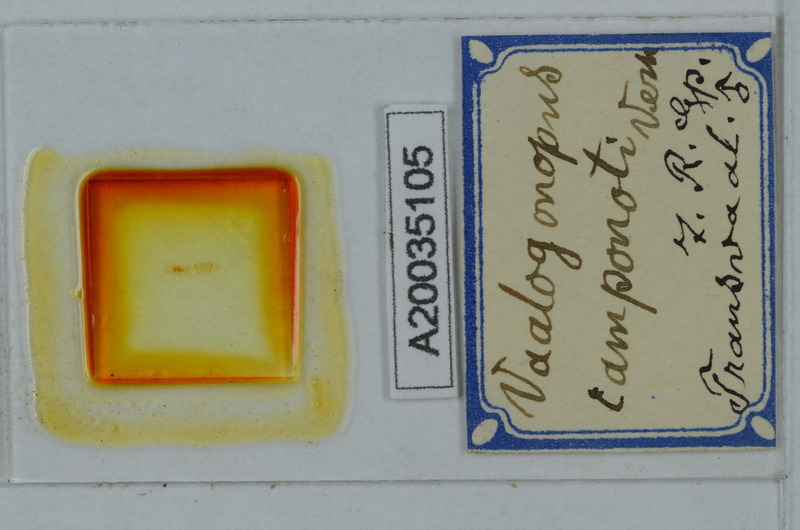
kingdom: Animalia
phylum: Arthropoda
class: Diplopoda
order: Polydesmida
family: Vaalogonopodidae
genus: Vaalogonopus
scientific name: Vaalogonopus camponoti
